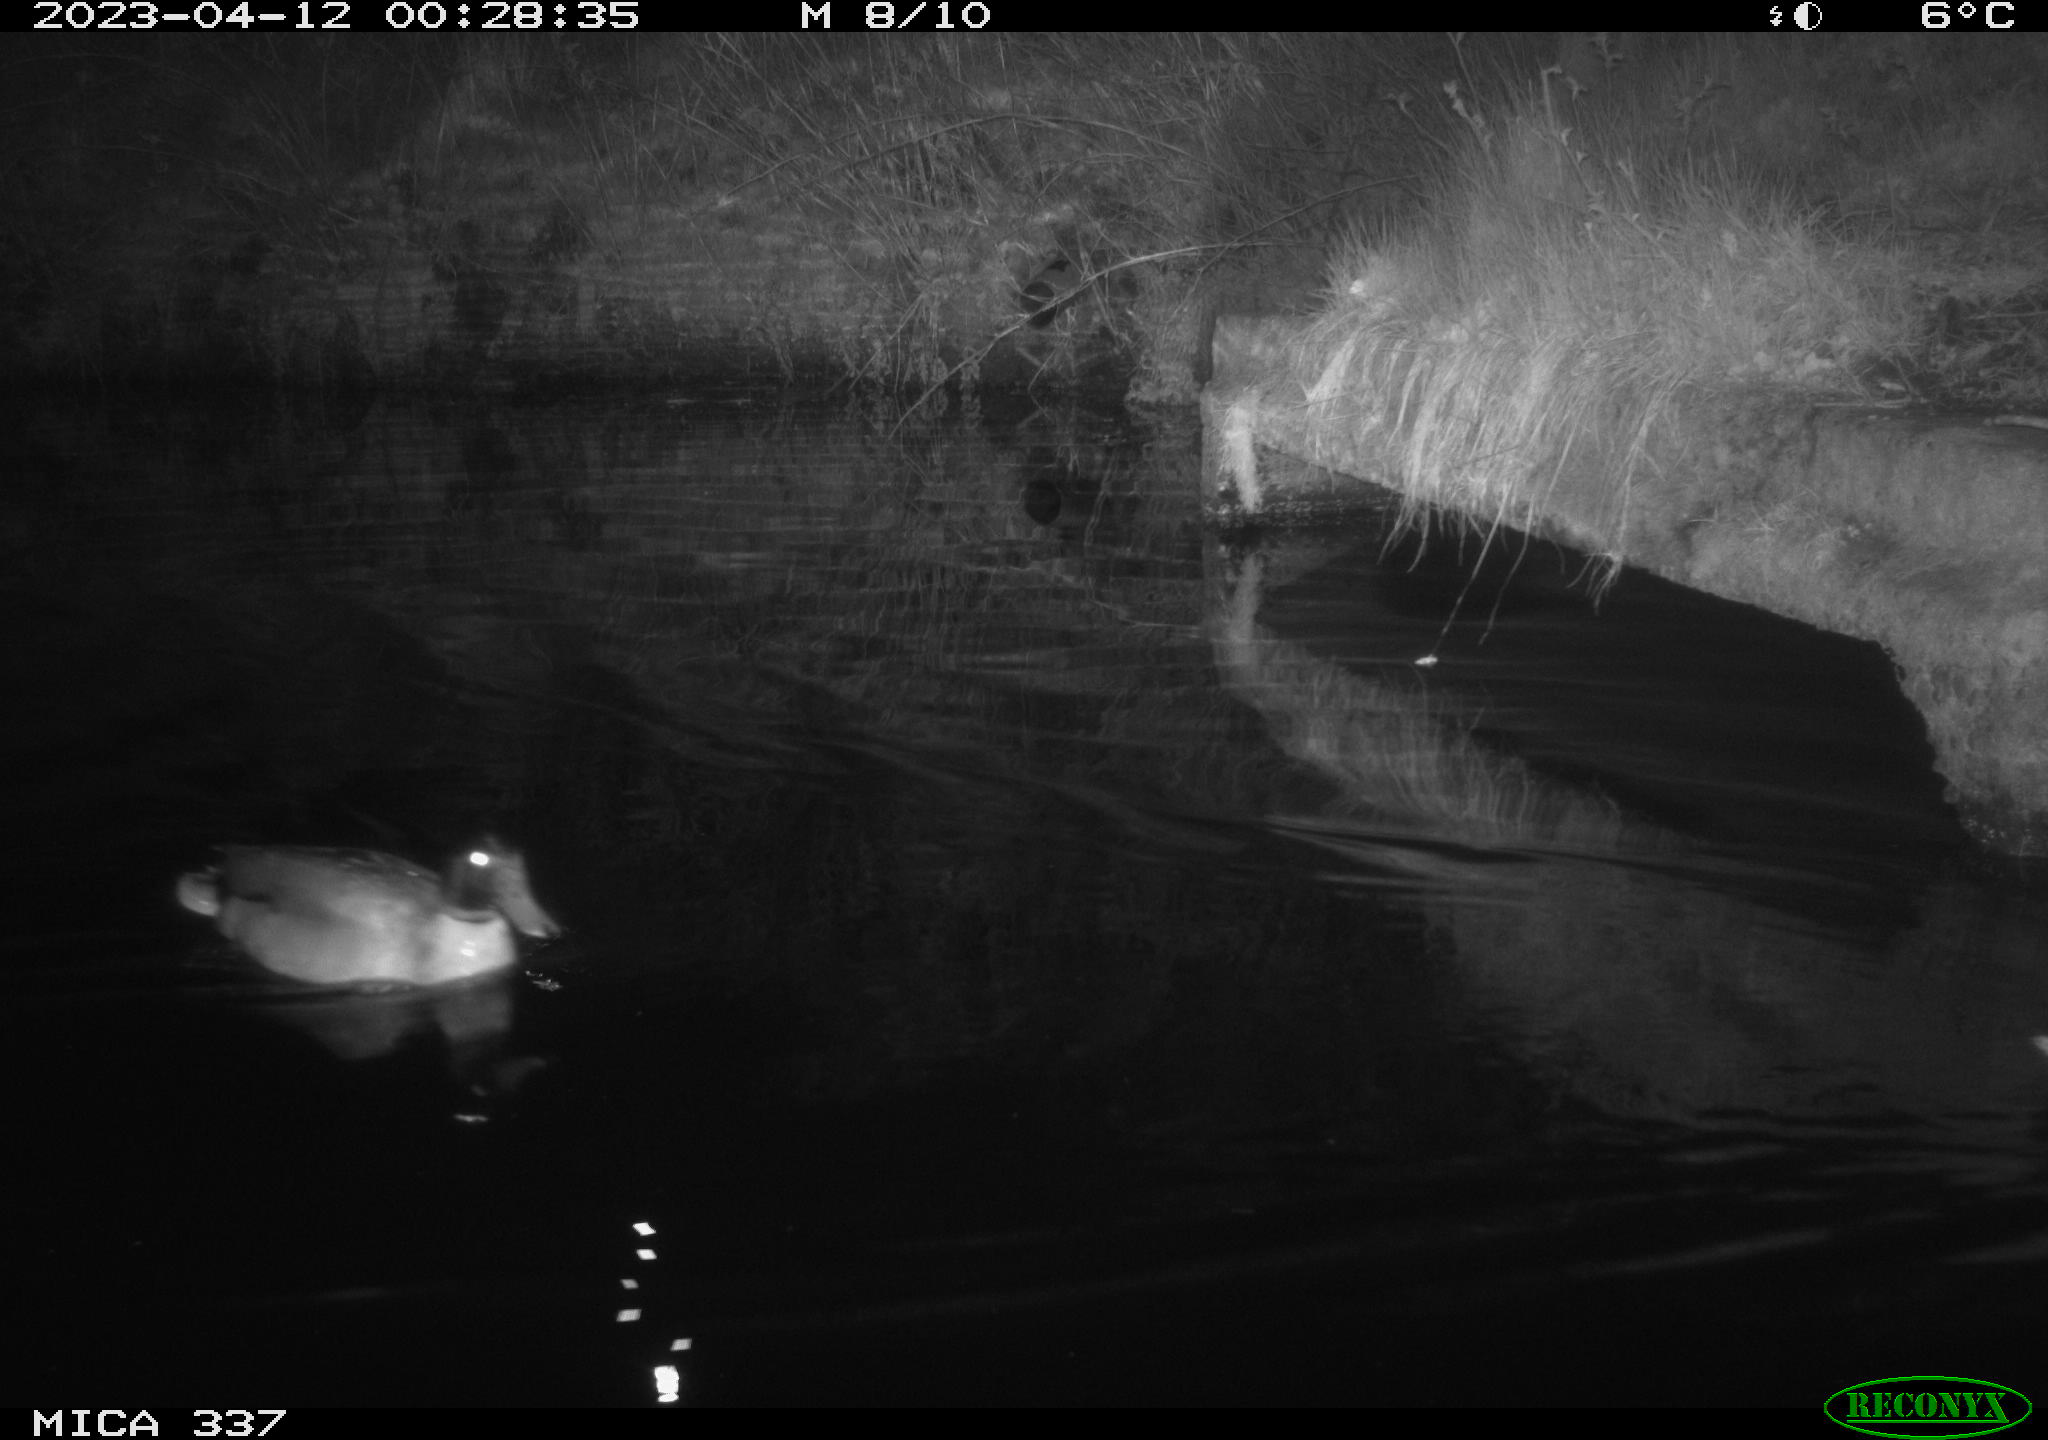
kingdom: Animalia
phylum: Chordata
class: Aves
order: Anseriformes
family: Anatidae
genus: Anas
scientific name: Anas
